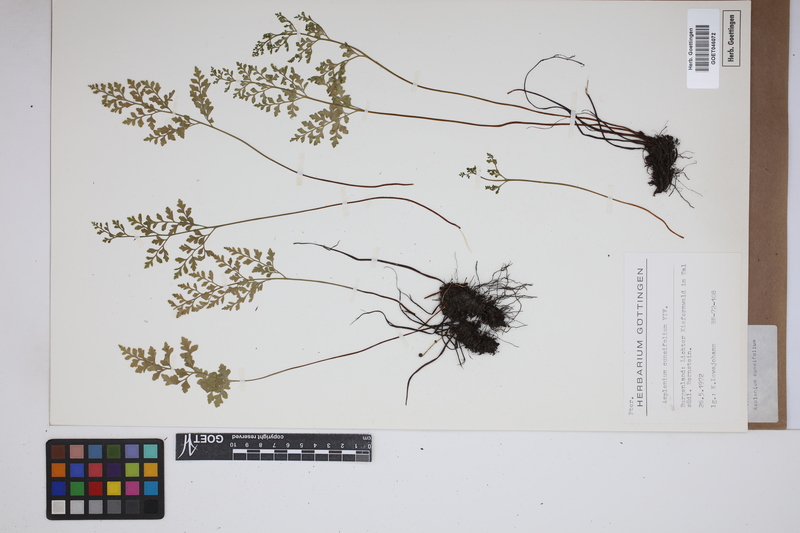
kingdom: Plantae
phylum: Tracheophyta
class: Polypodiopsida
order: Polypodiales
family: Aspleniaceae
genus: Asplenium
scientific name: Asplenium cuneifolium
